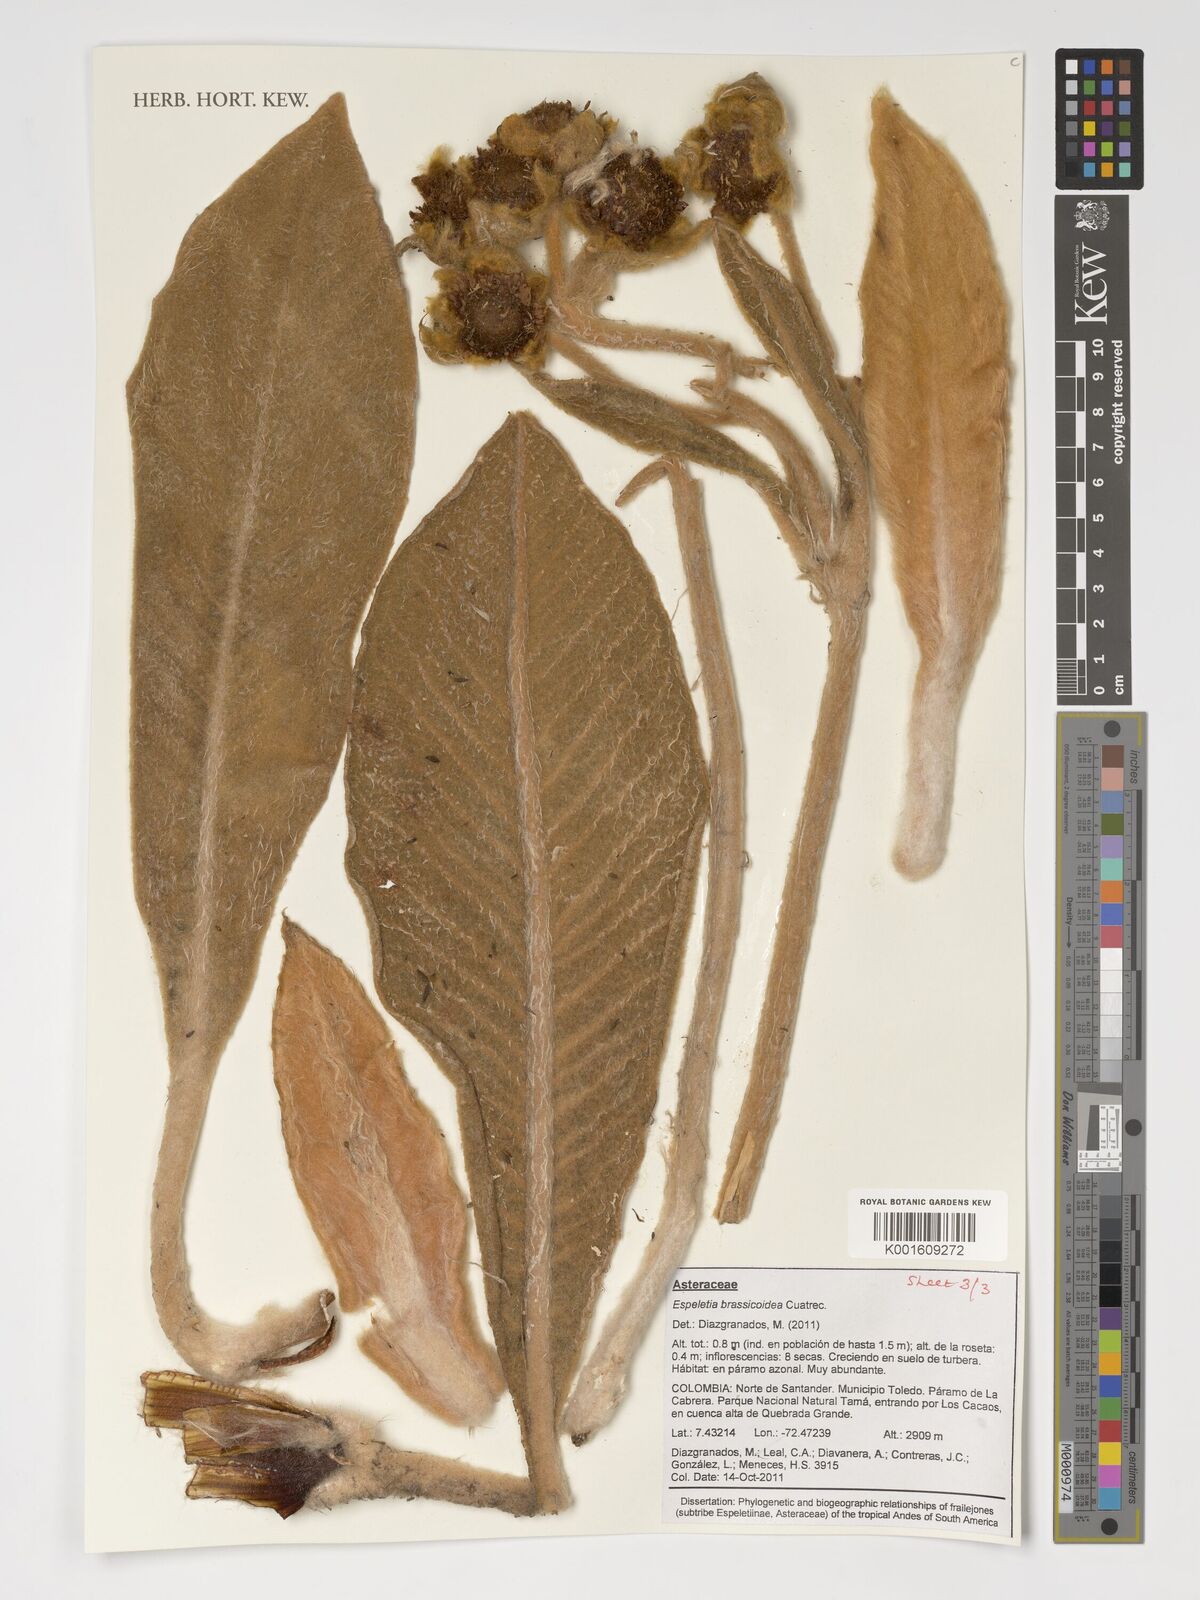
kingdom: Plantae
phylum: Tracheophyta
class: Magnoliopsida
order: Asterales
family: Asteraceae
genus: Espeletia
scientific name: Espeletia brassicoidea
